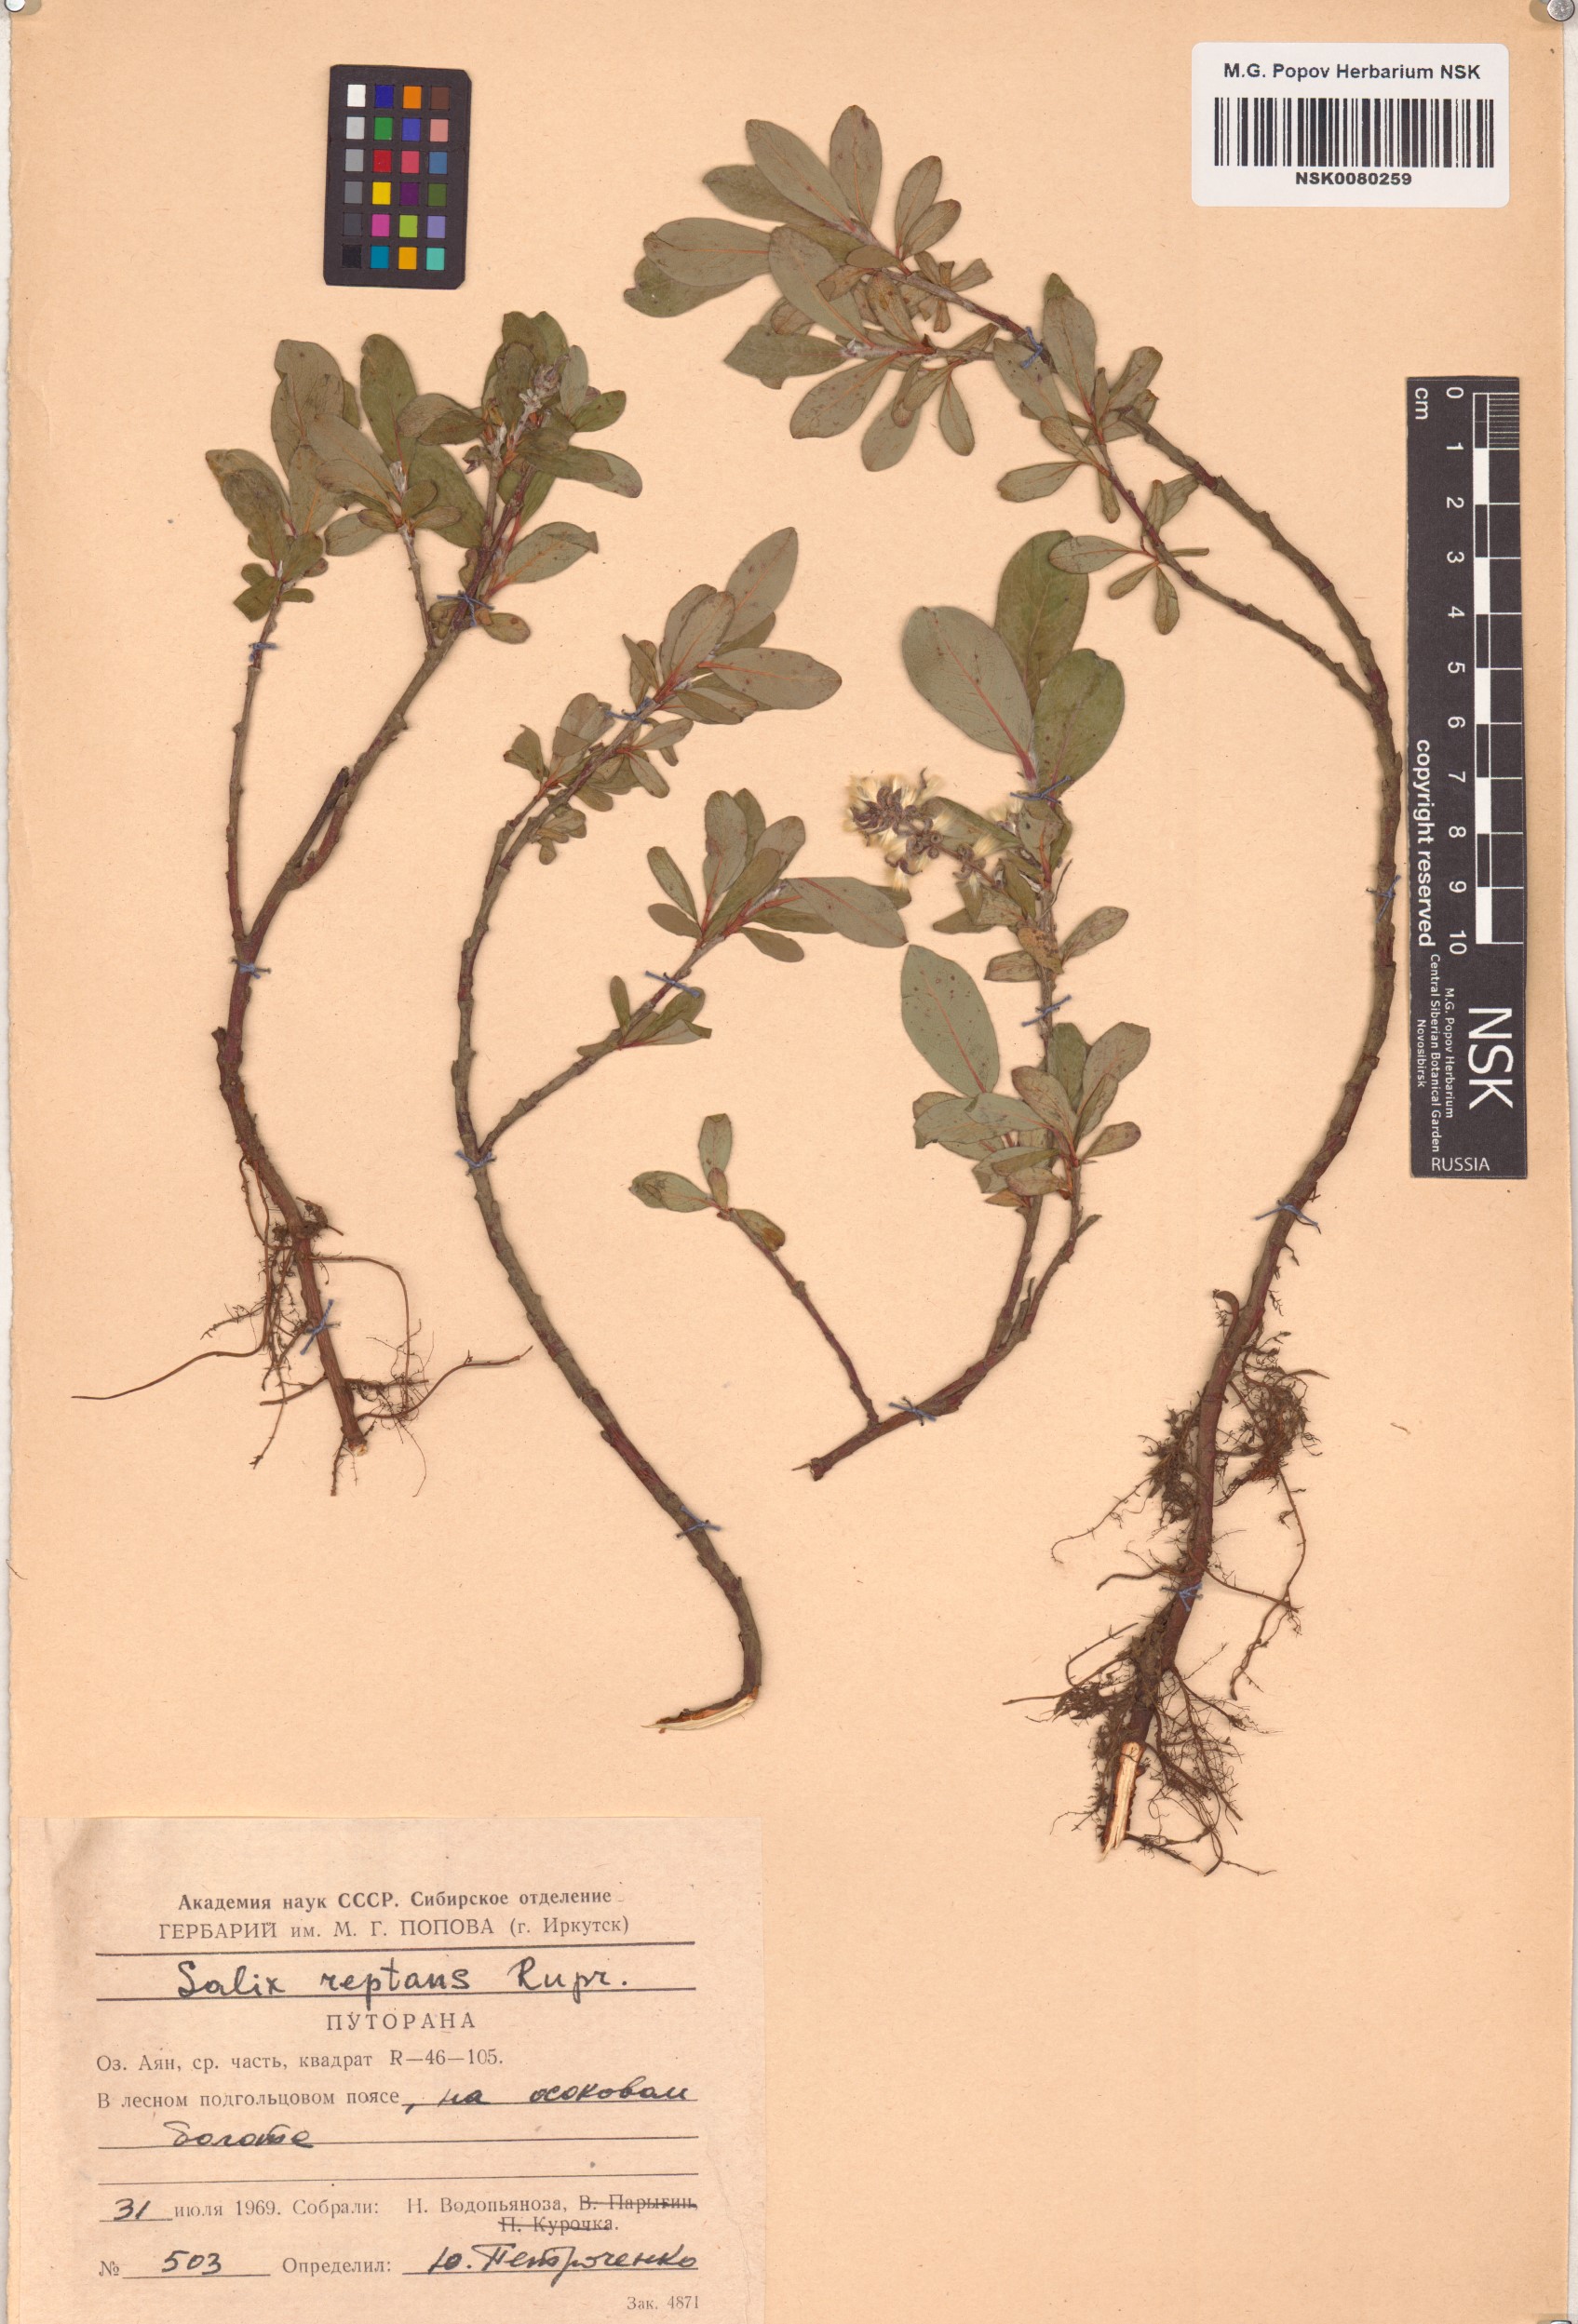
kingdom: Plantae
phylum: Tracheophyta
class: Magnoliopsida
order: Malpighiales
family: Salicaceae
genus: Salix
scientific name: Salix reptans
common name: Arctic creeping willow
